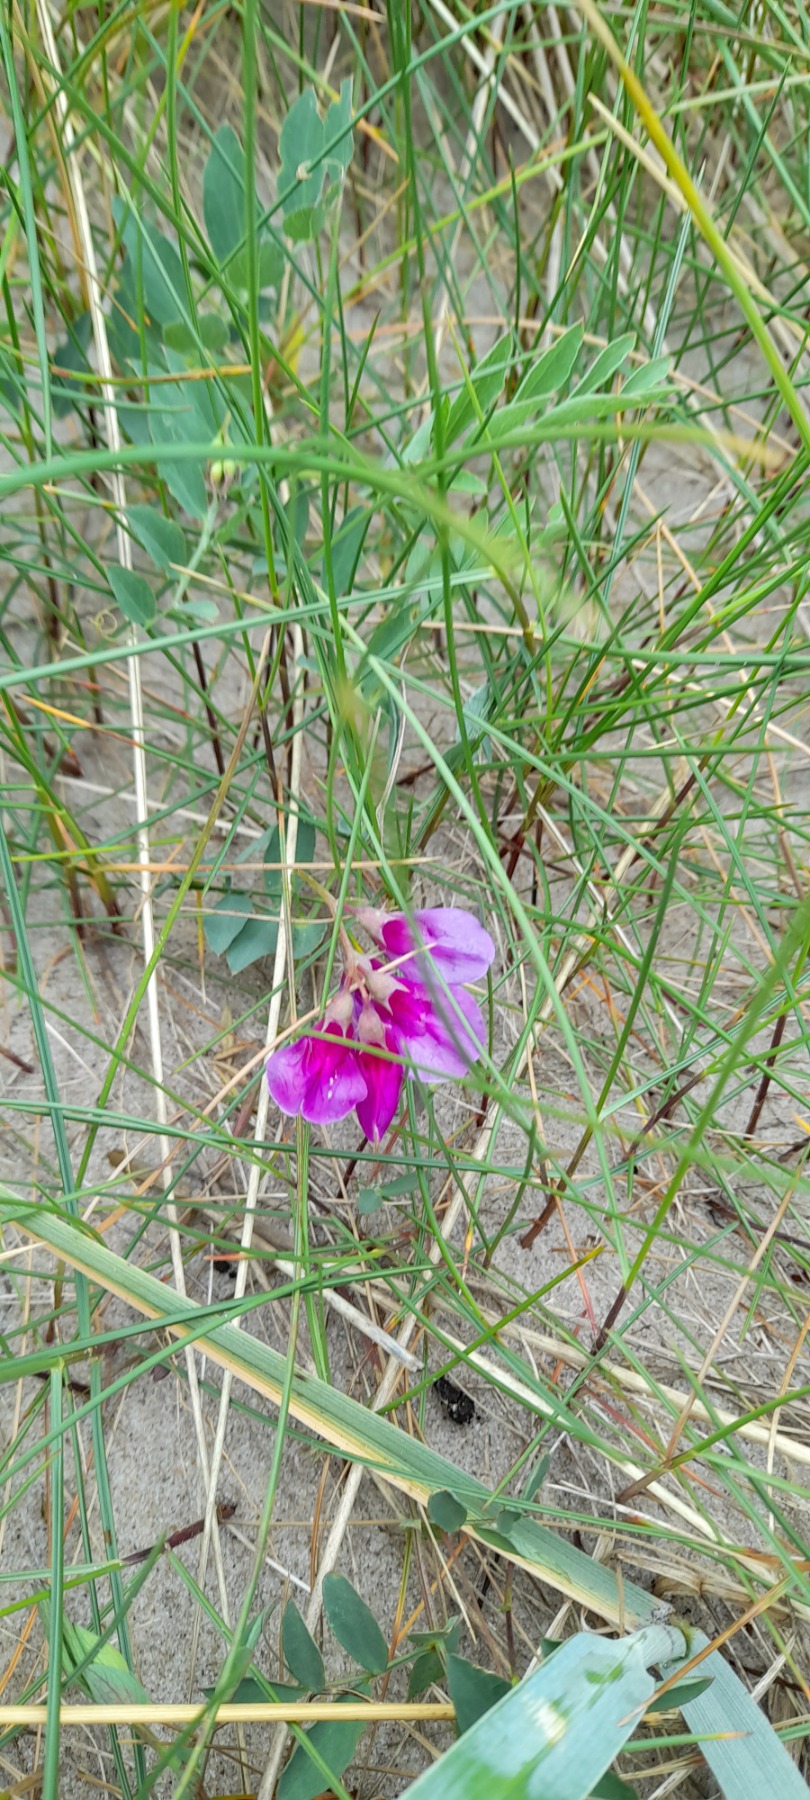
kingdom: Plantae
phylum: Tracheophyta
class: Magnoliopsida
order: Fabales
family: Fabaceae
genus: Lathyrus
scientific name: Lathyrus japonicus
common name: Strand-fladbælg
